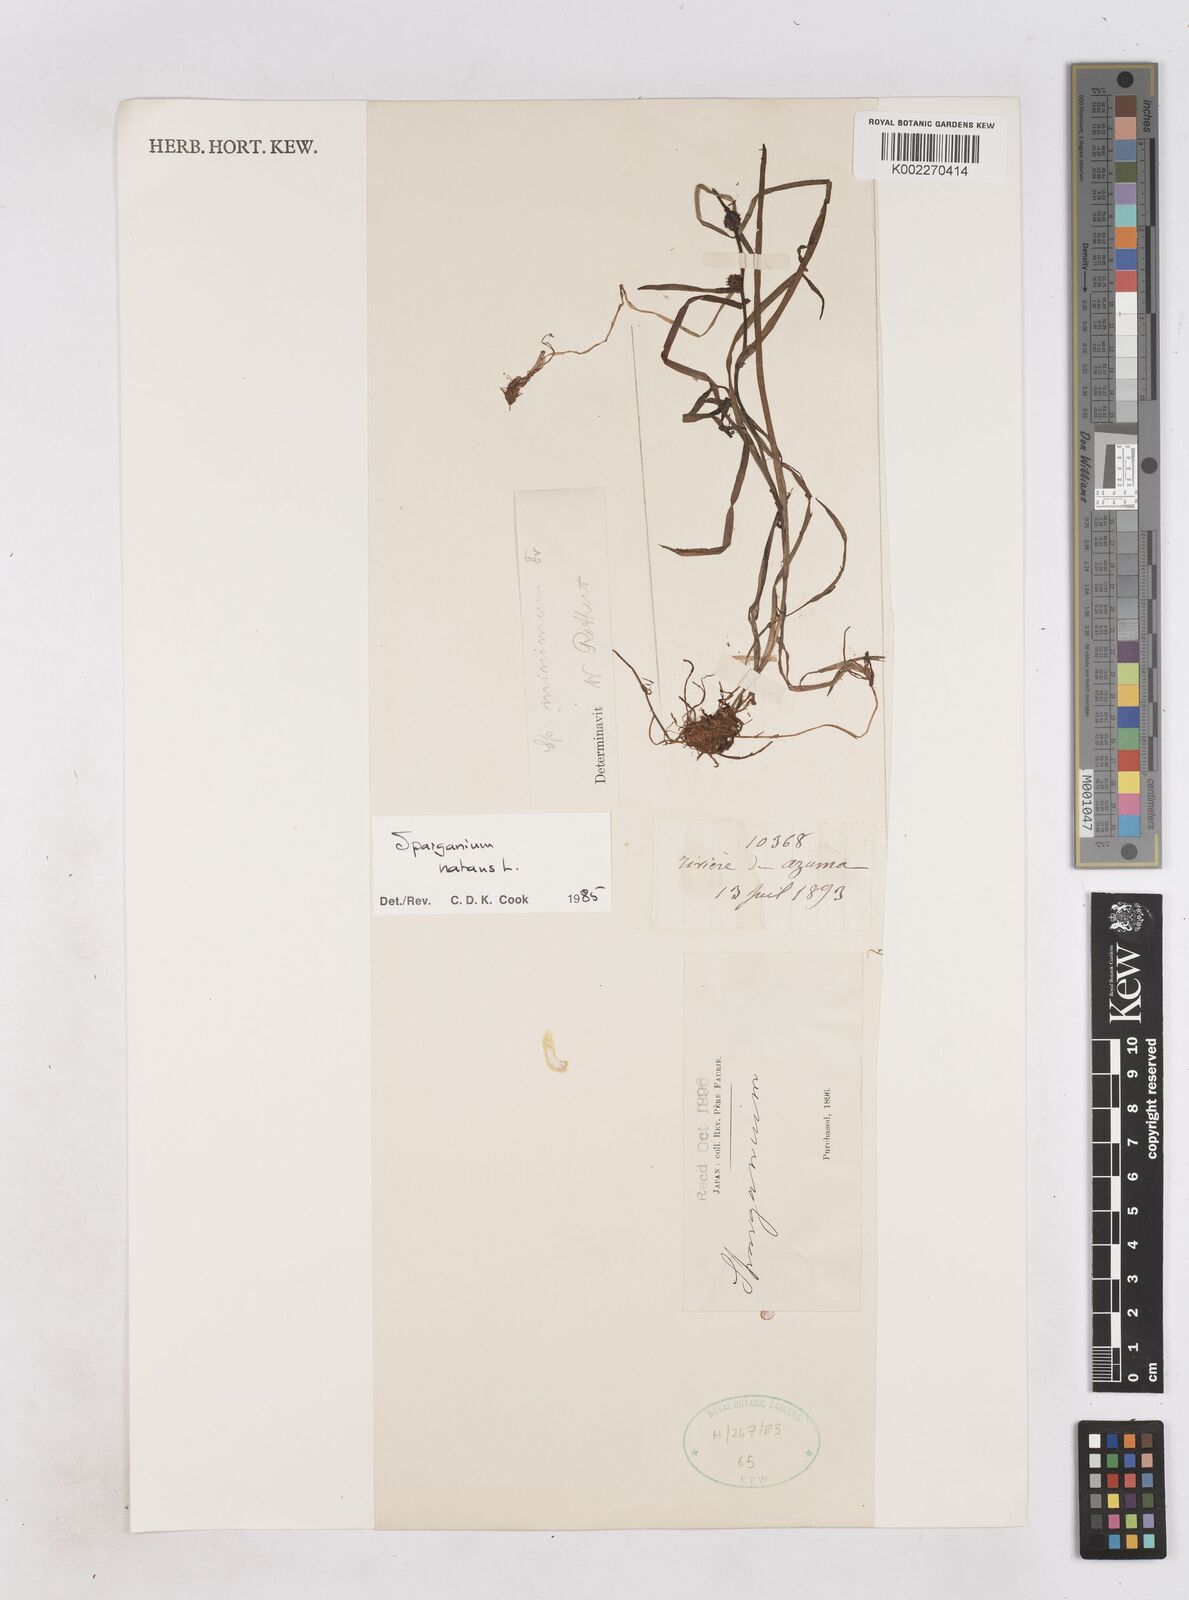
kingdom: Plantae
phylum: Tracheophyta
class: Liliopsida
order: Poales
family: Typhaceae
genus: Sparganium
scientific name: Sparganium natans
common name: Least bur-reed
